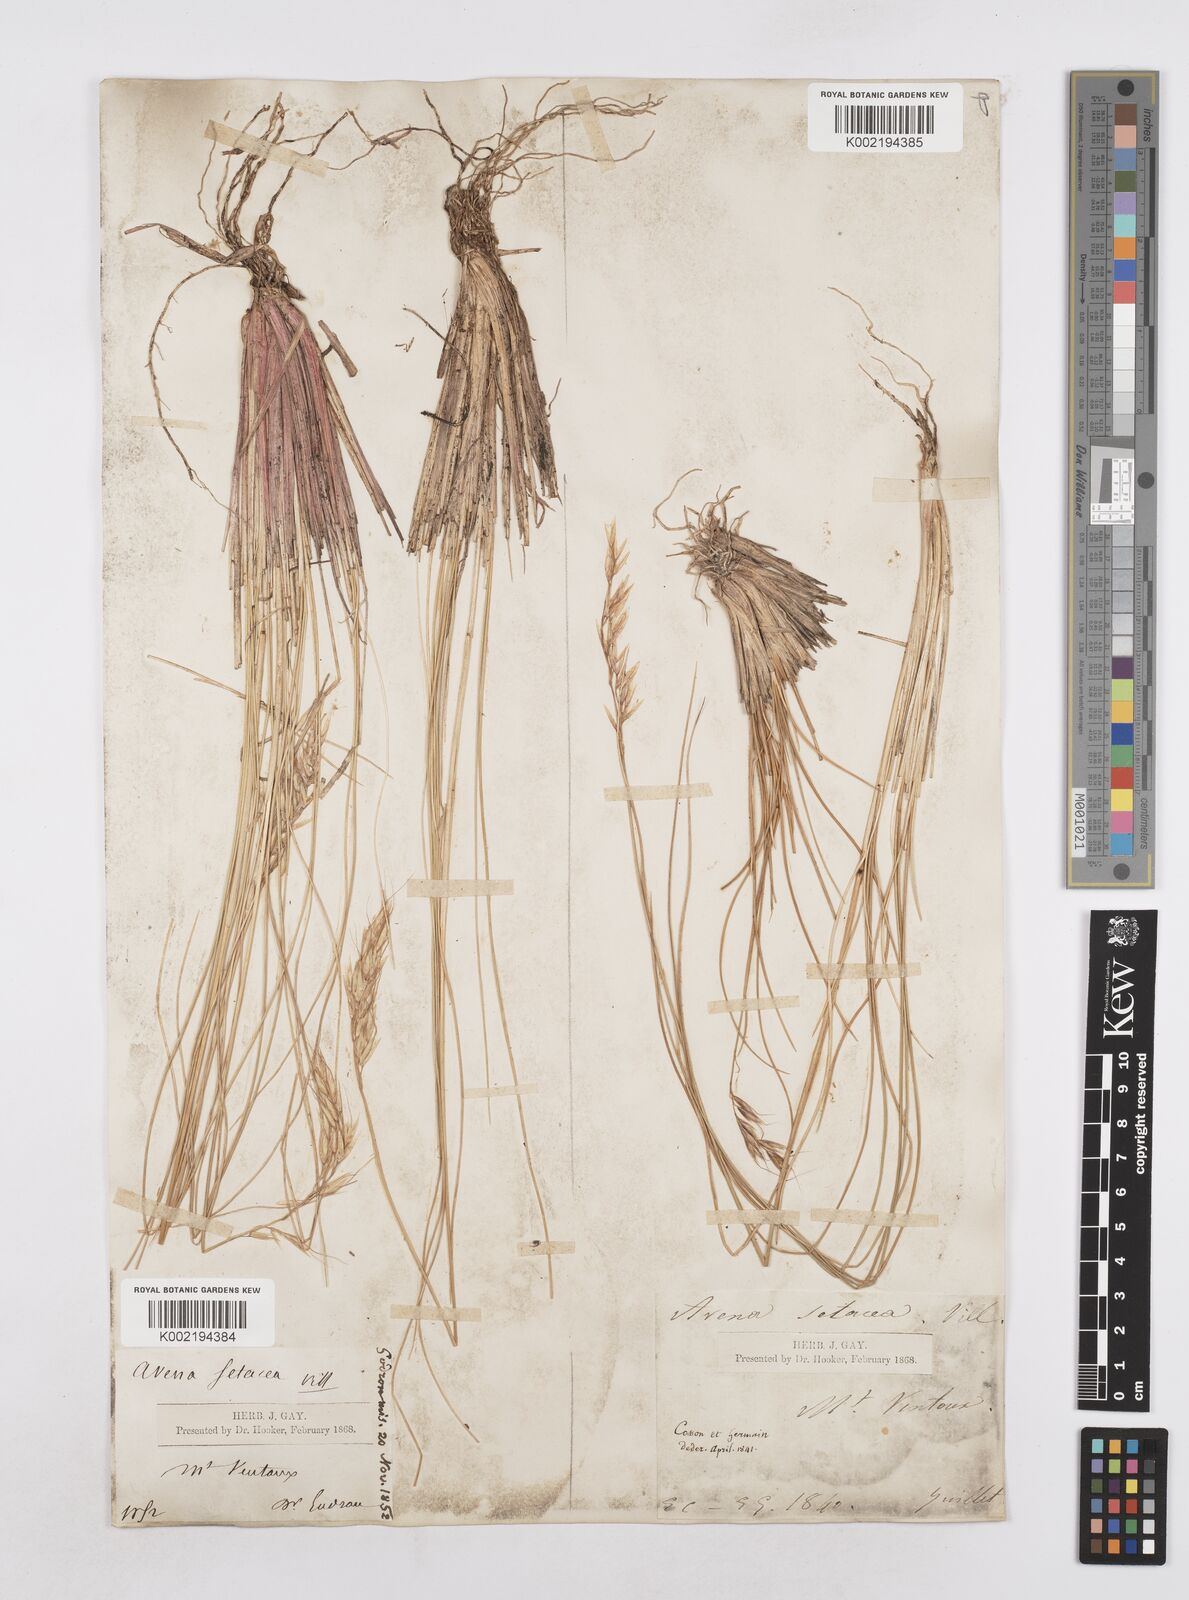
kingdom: Plantae
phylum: Tracheophyta
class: Liliopsida
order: Poales
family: Poaceae
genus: Helictotrichon
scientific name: Helictotrichon setaceum
